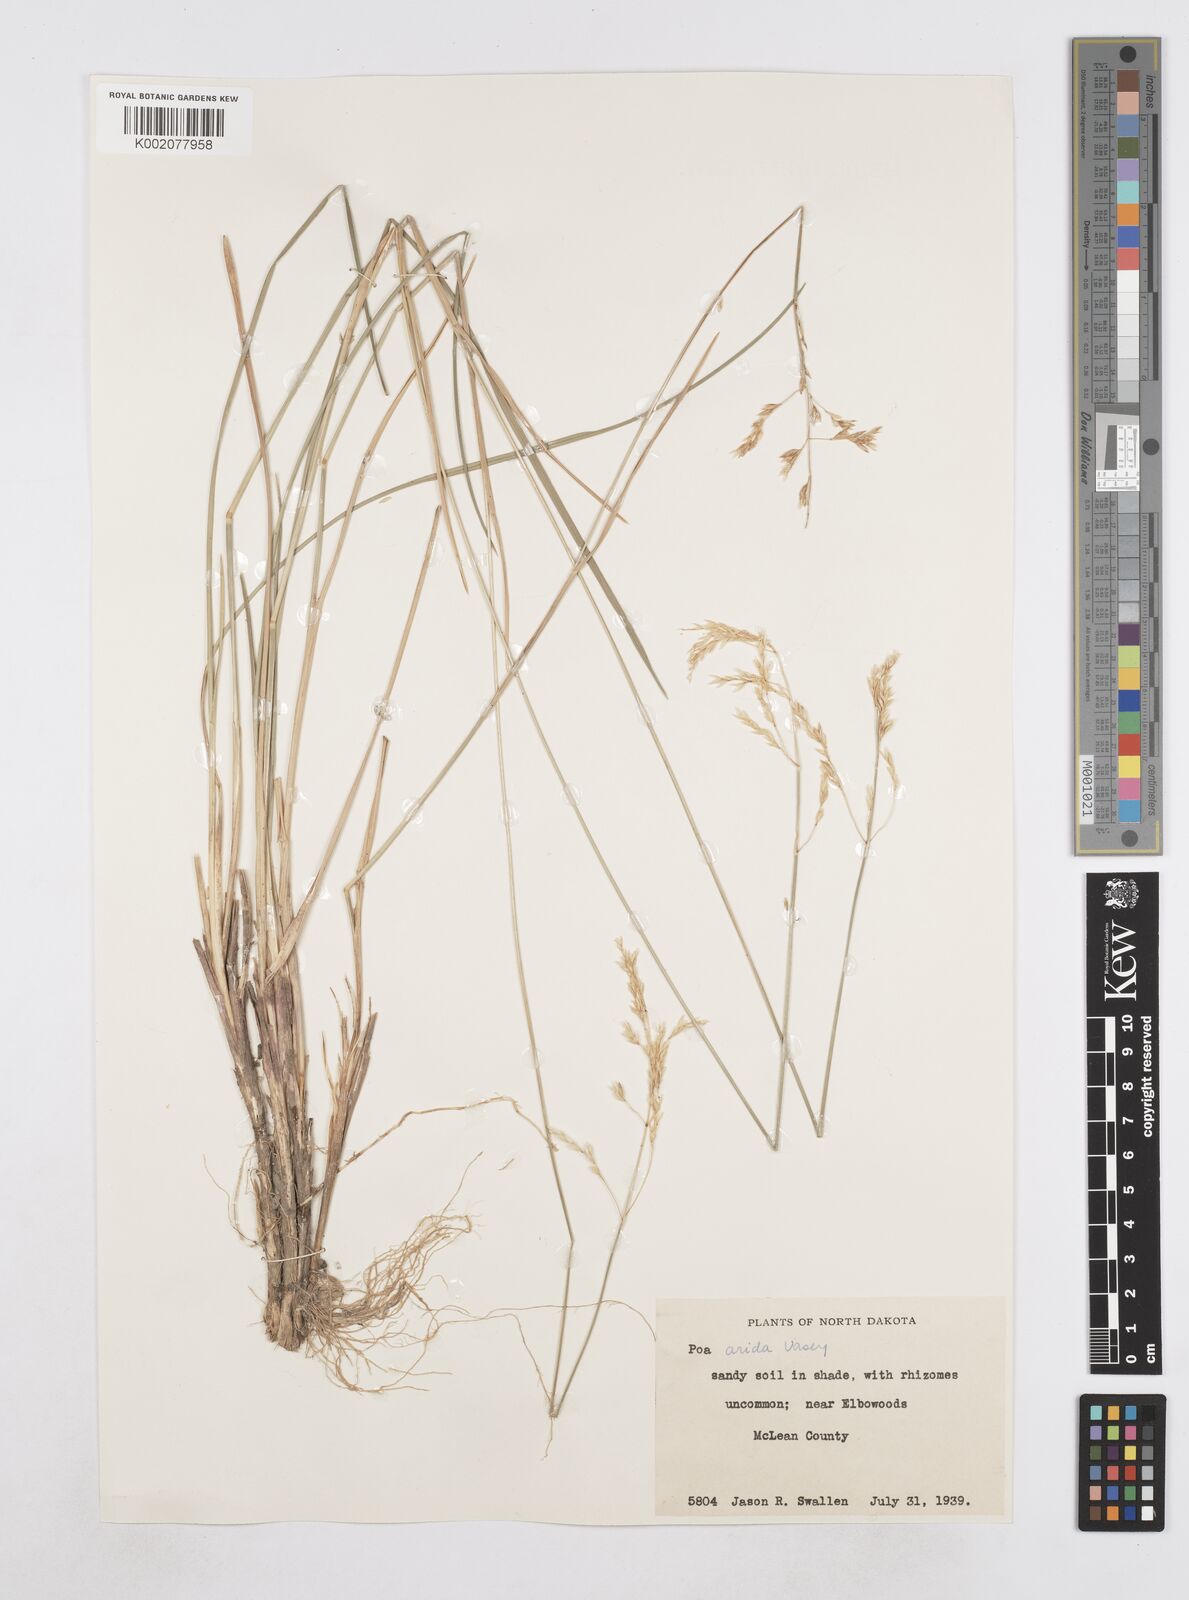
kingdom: Plantae
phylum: Tracheophyta
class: Liliopsida
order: Poales
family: Poaceae
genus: Poa
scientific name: Poa arida
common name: Plains bluegrass
